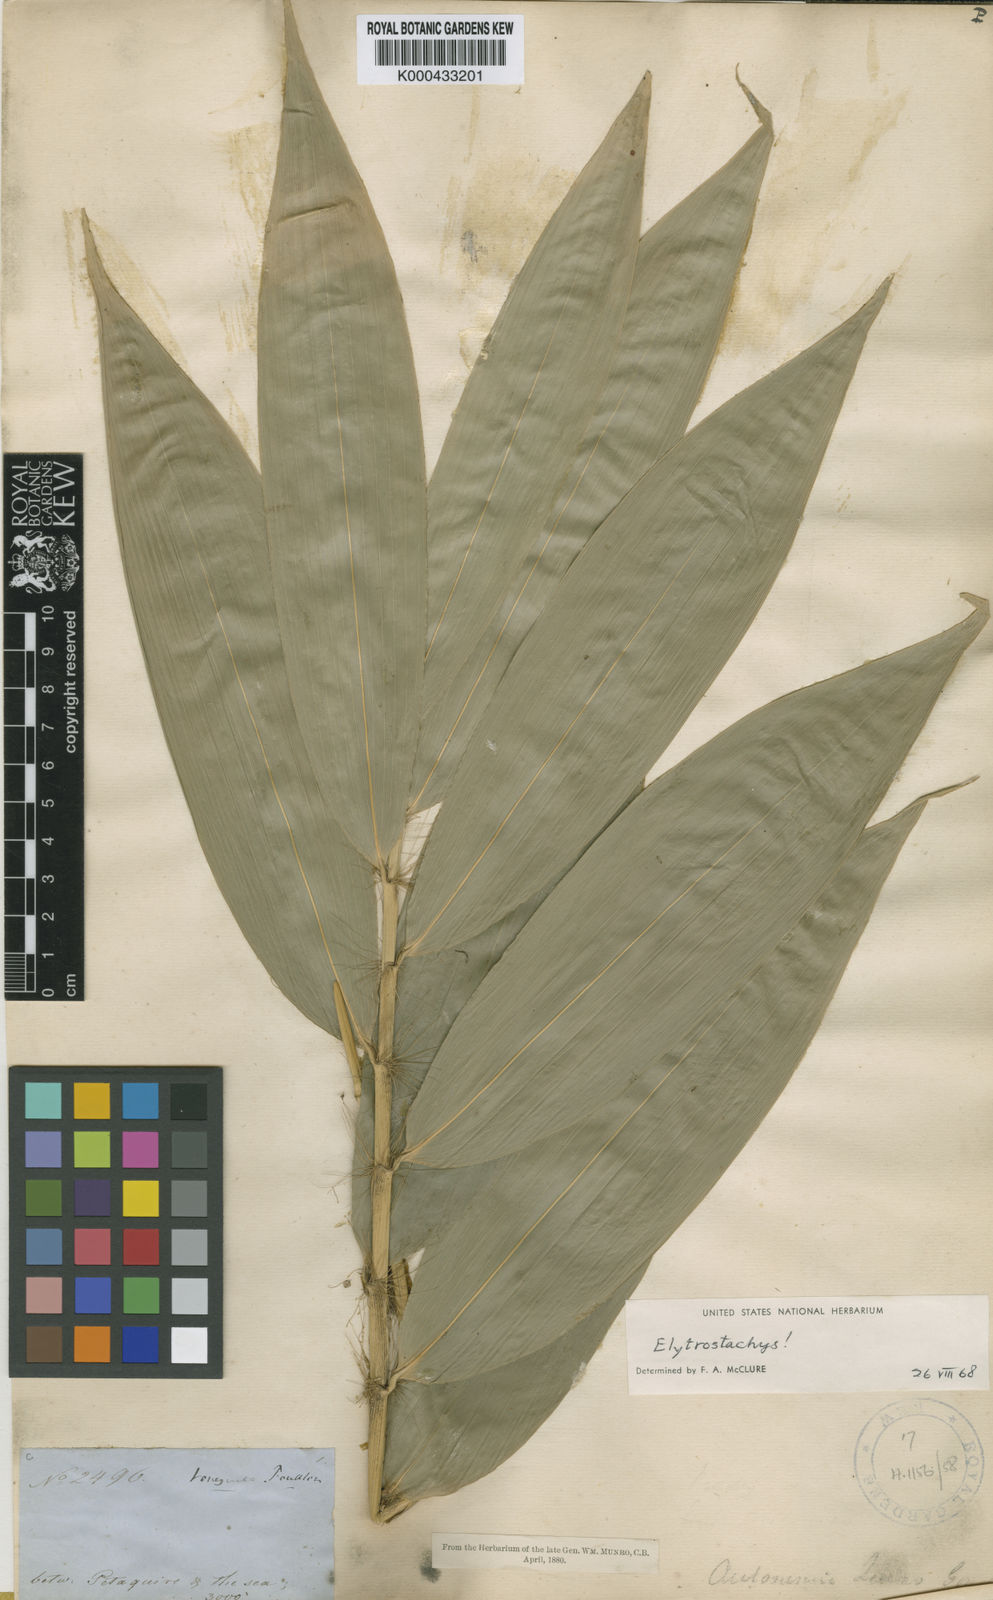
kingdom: Plantae
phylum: Tracheophyta
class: Liliopsida
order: Poales
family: Poaceae
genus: Aulonemia
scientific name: Aulonemia queko
